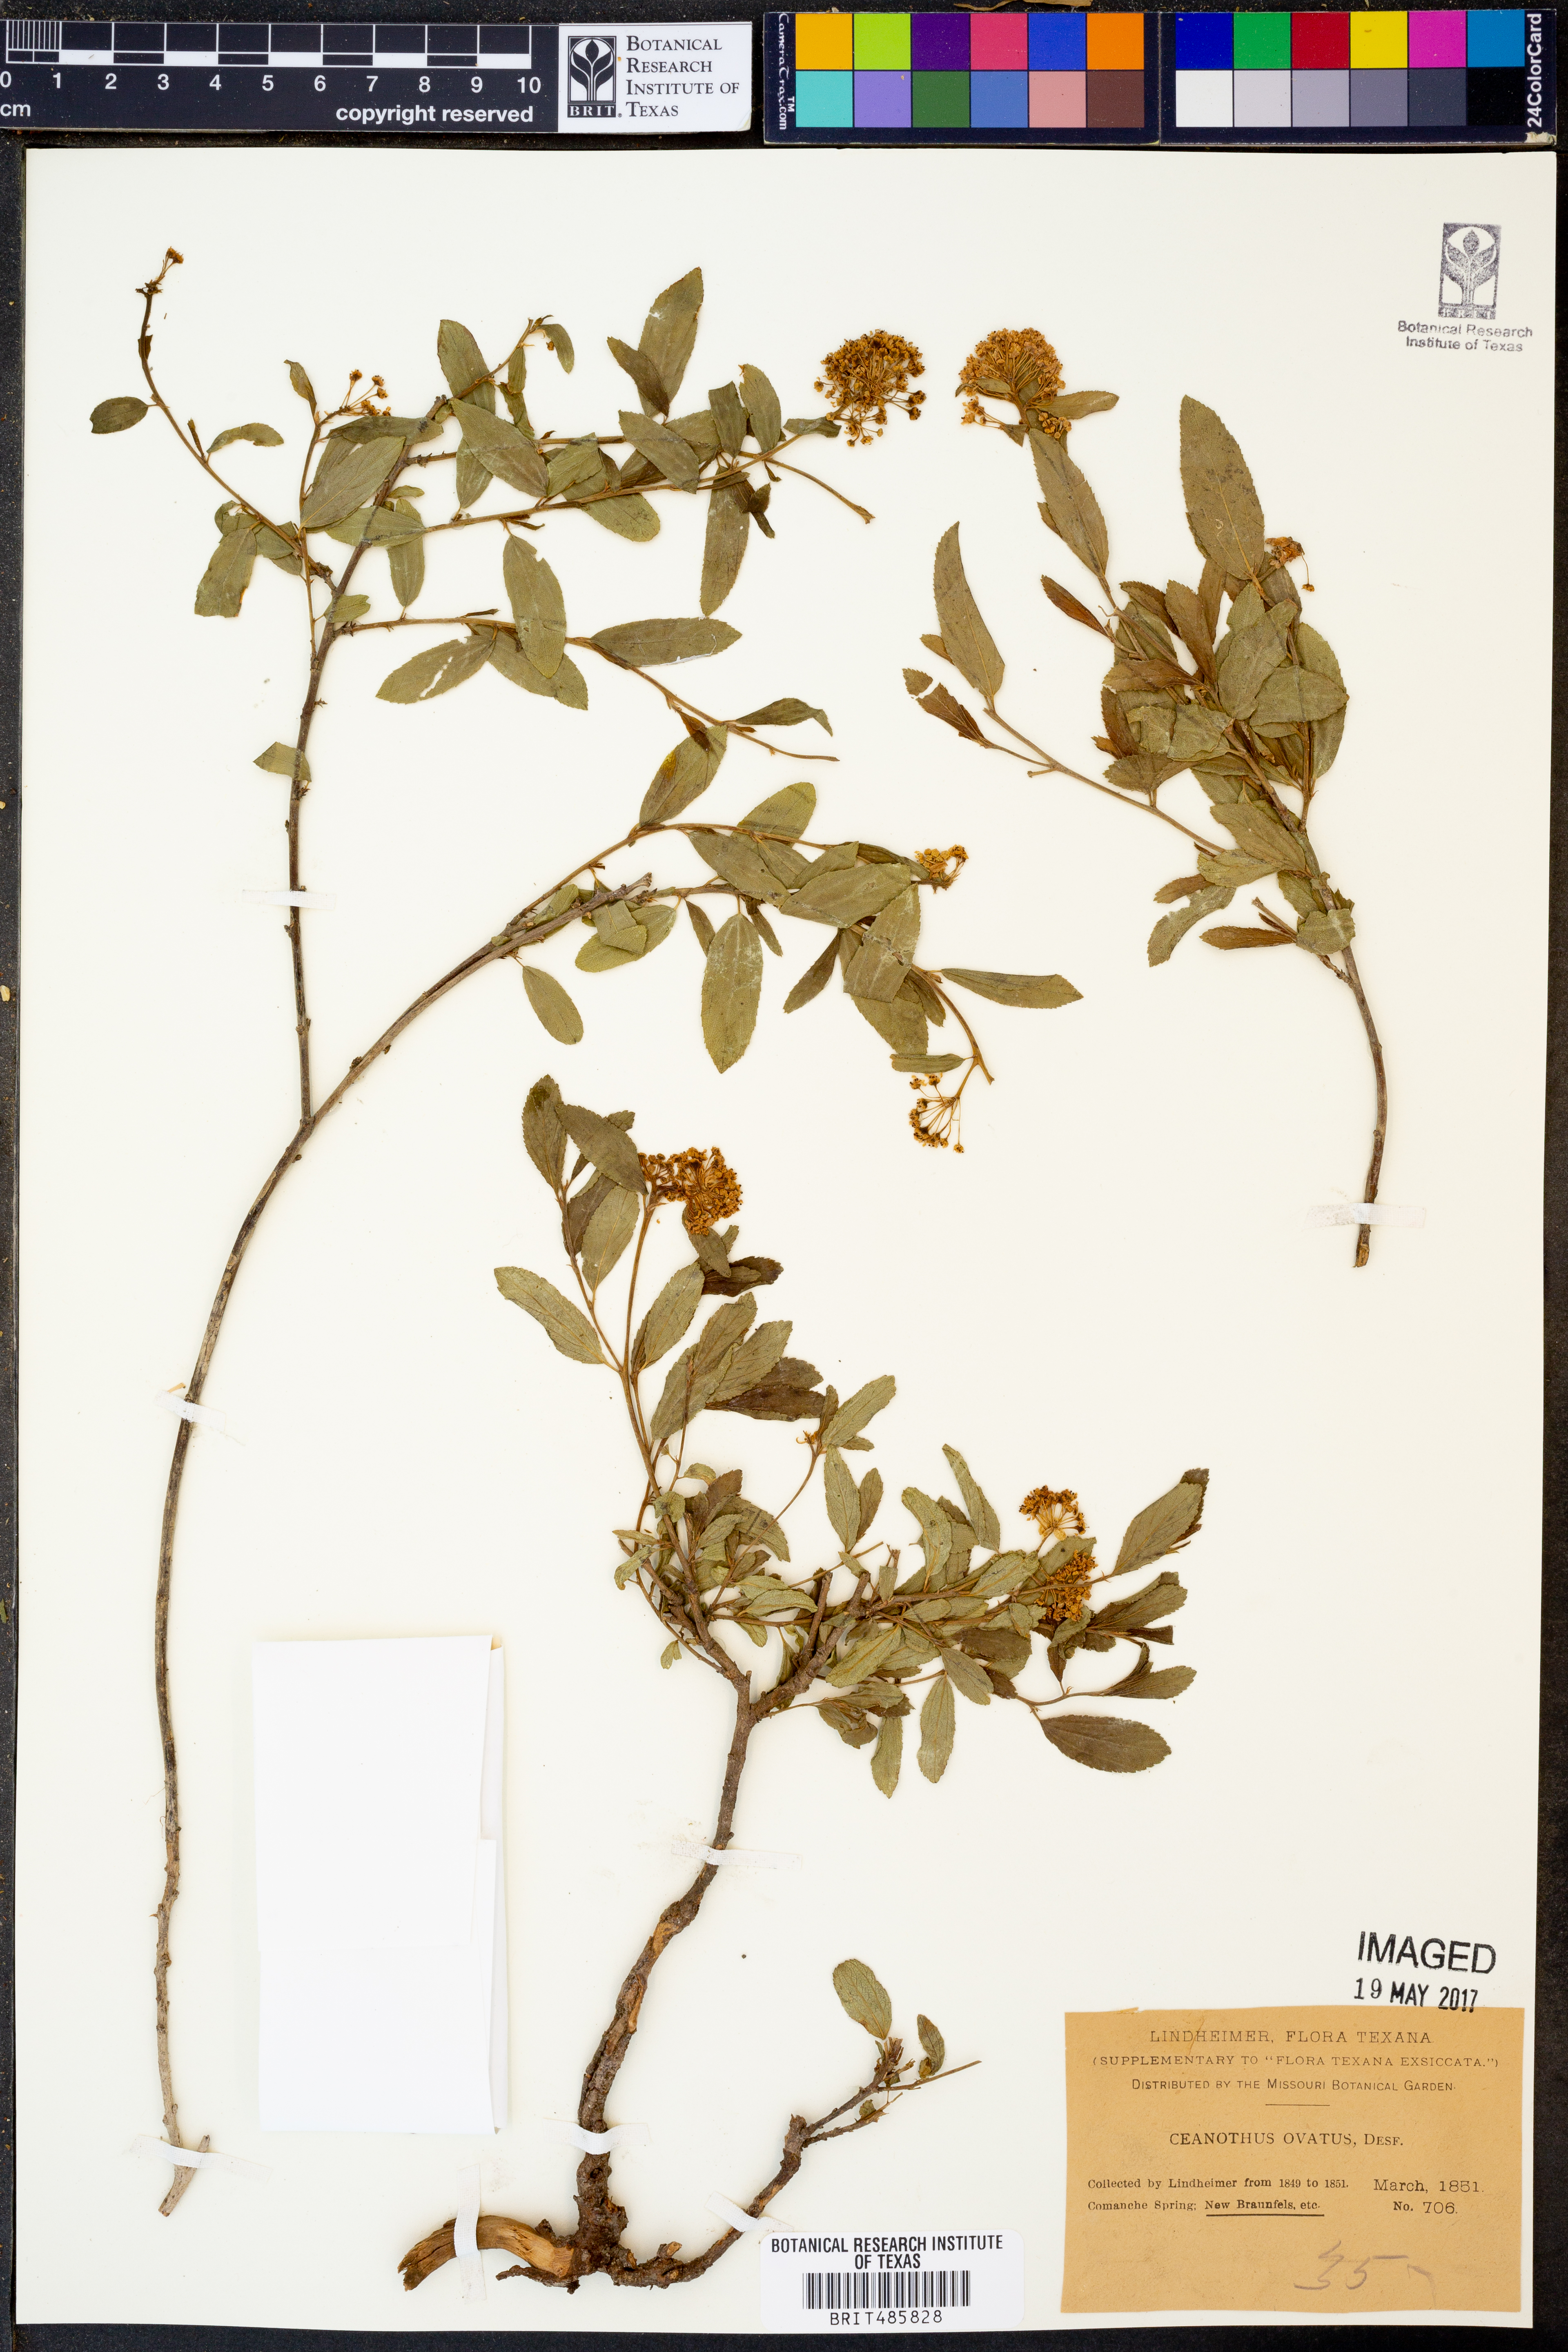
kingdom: Plantae
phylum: Tracheophyta
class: Magnoliopsida
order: Rosales
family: Rhamnaceae
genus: Ceanothus
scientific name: Ceanothus herbaceus
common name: Inland ceanothus
